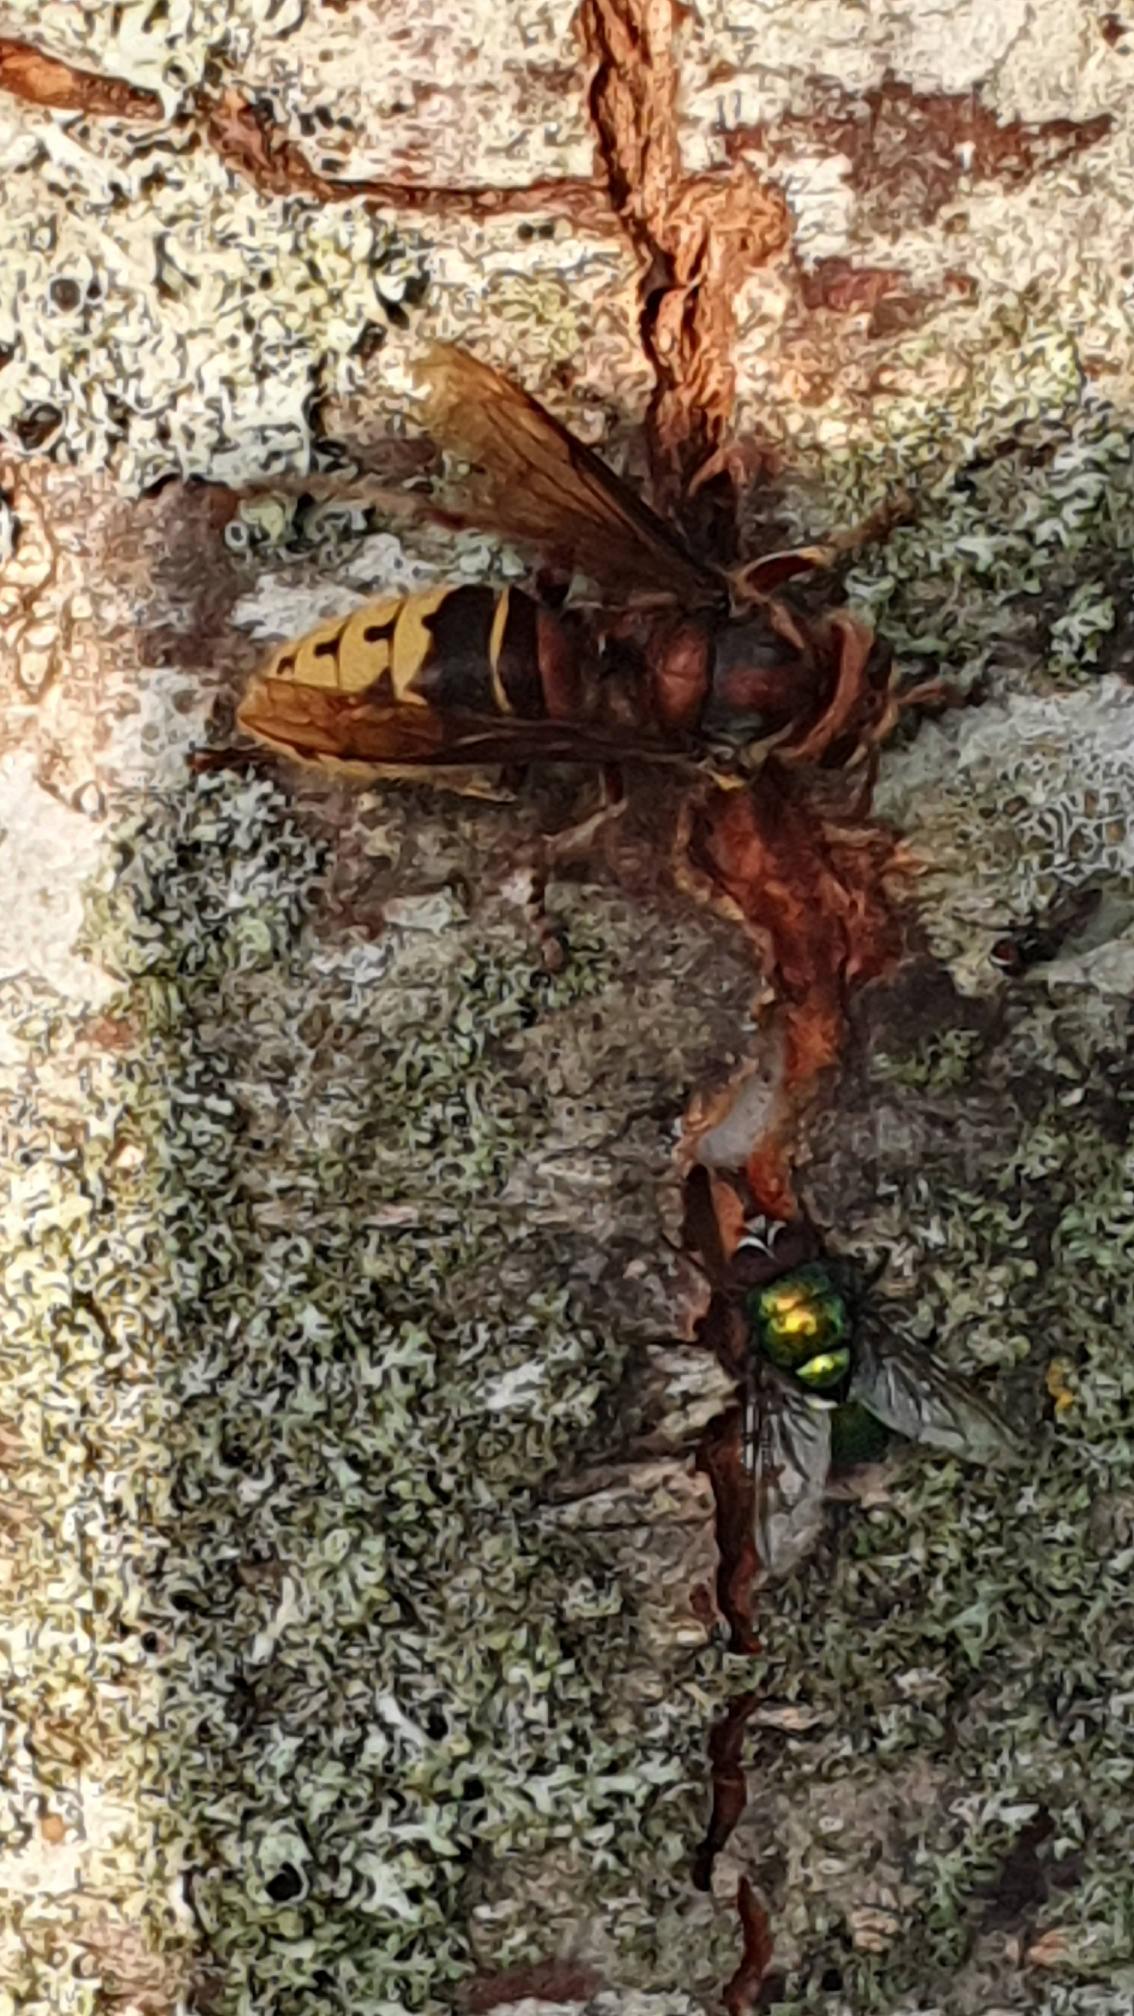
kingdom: Animalia
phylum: Arthropoda
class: Insecta
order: Hymenoptera
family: Vespidae
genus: Vespa
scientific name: Vespa crabro
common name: Stor gedehams
